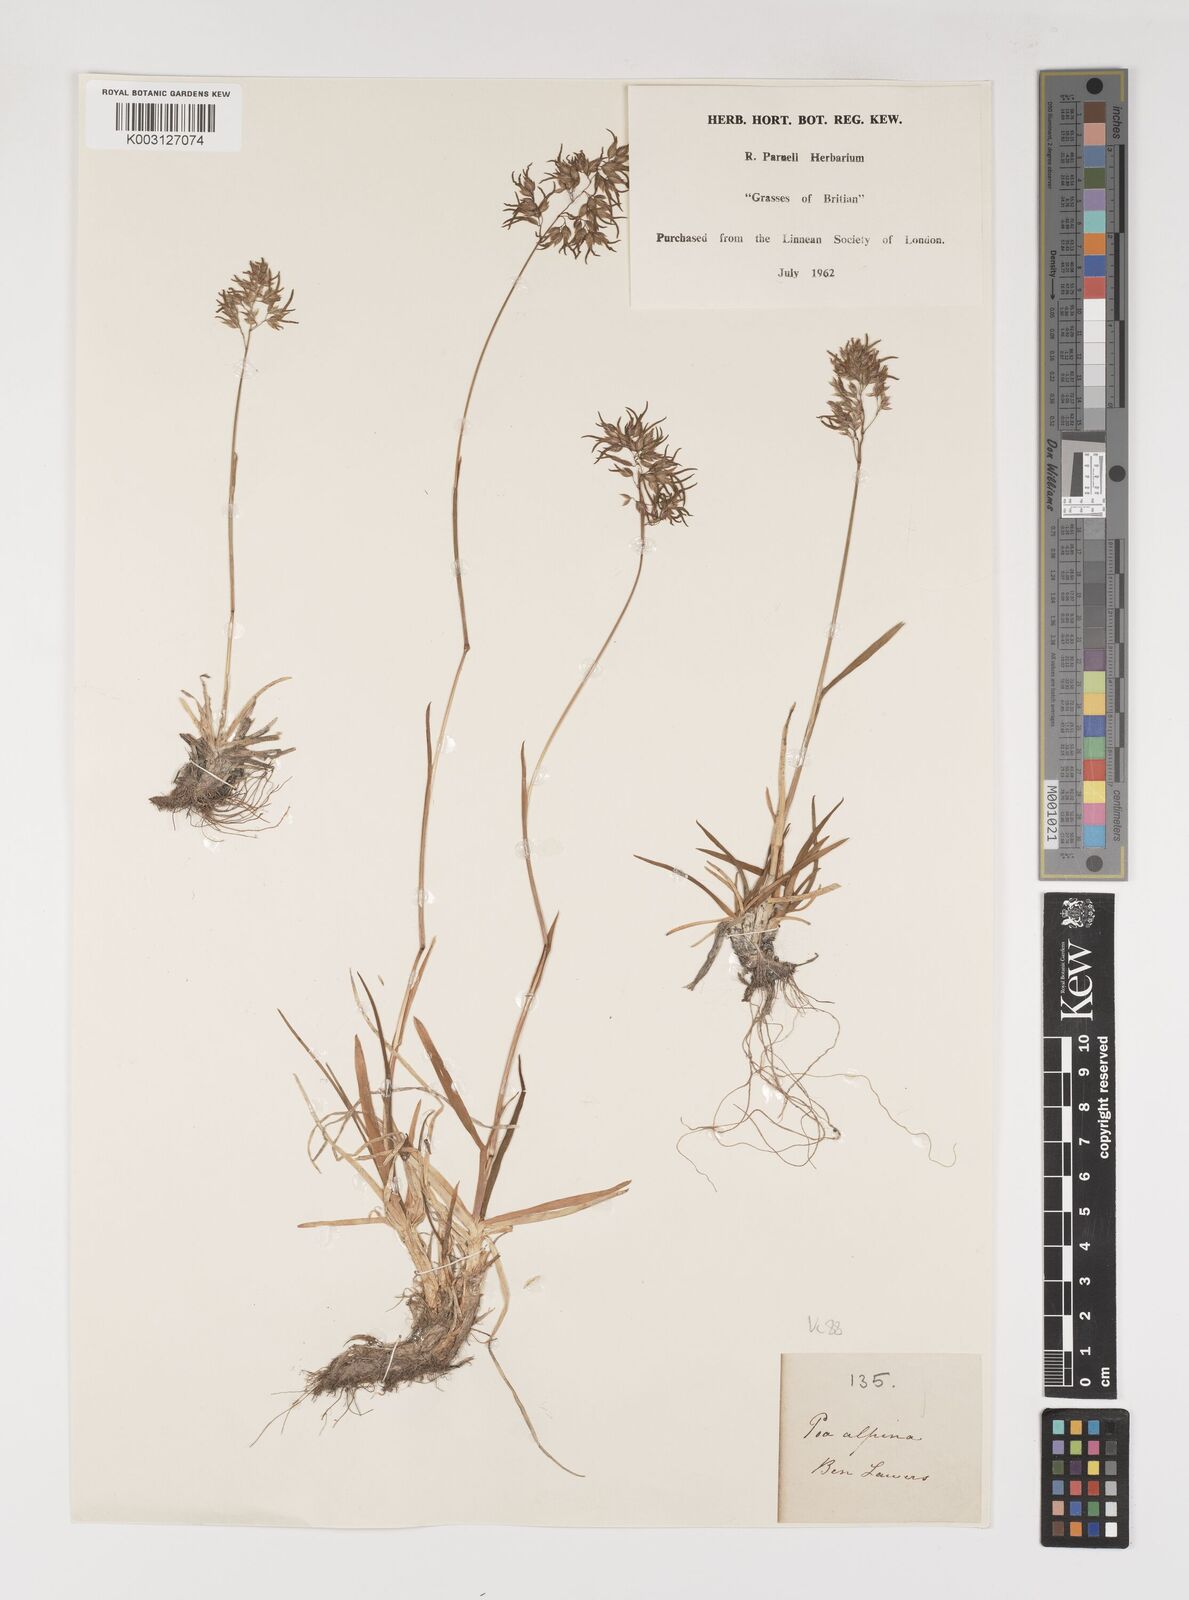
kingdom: Plantae
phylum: Tracheophyta
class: Liliopsida
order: Poales
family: Poaceae
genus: Poa
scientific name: Poa alpina
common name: Alpine bluegrass
